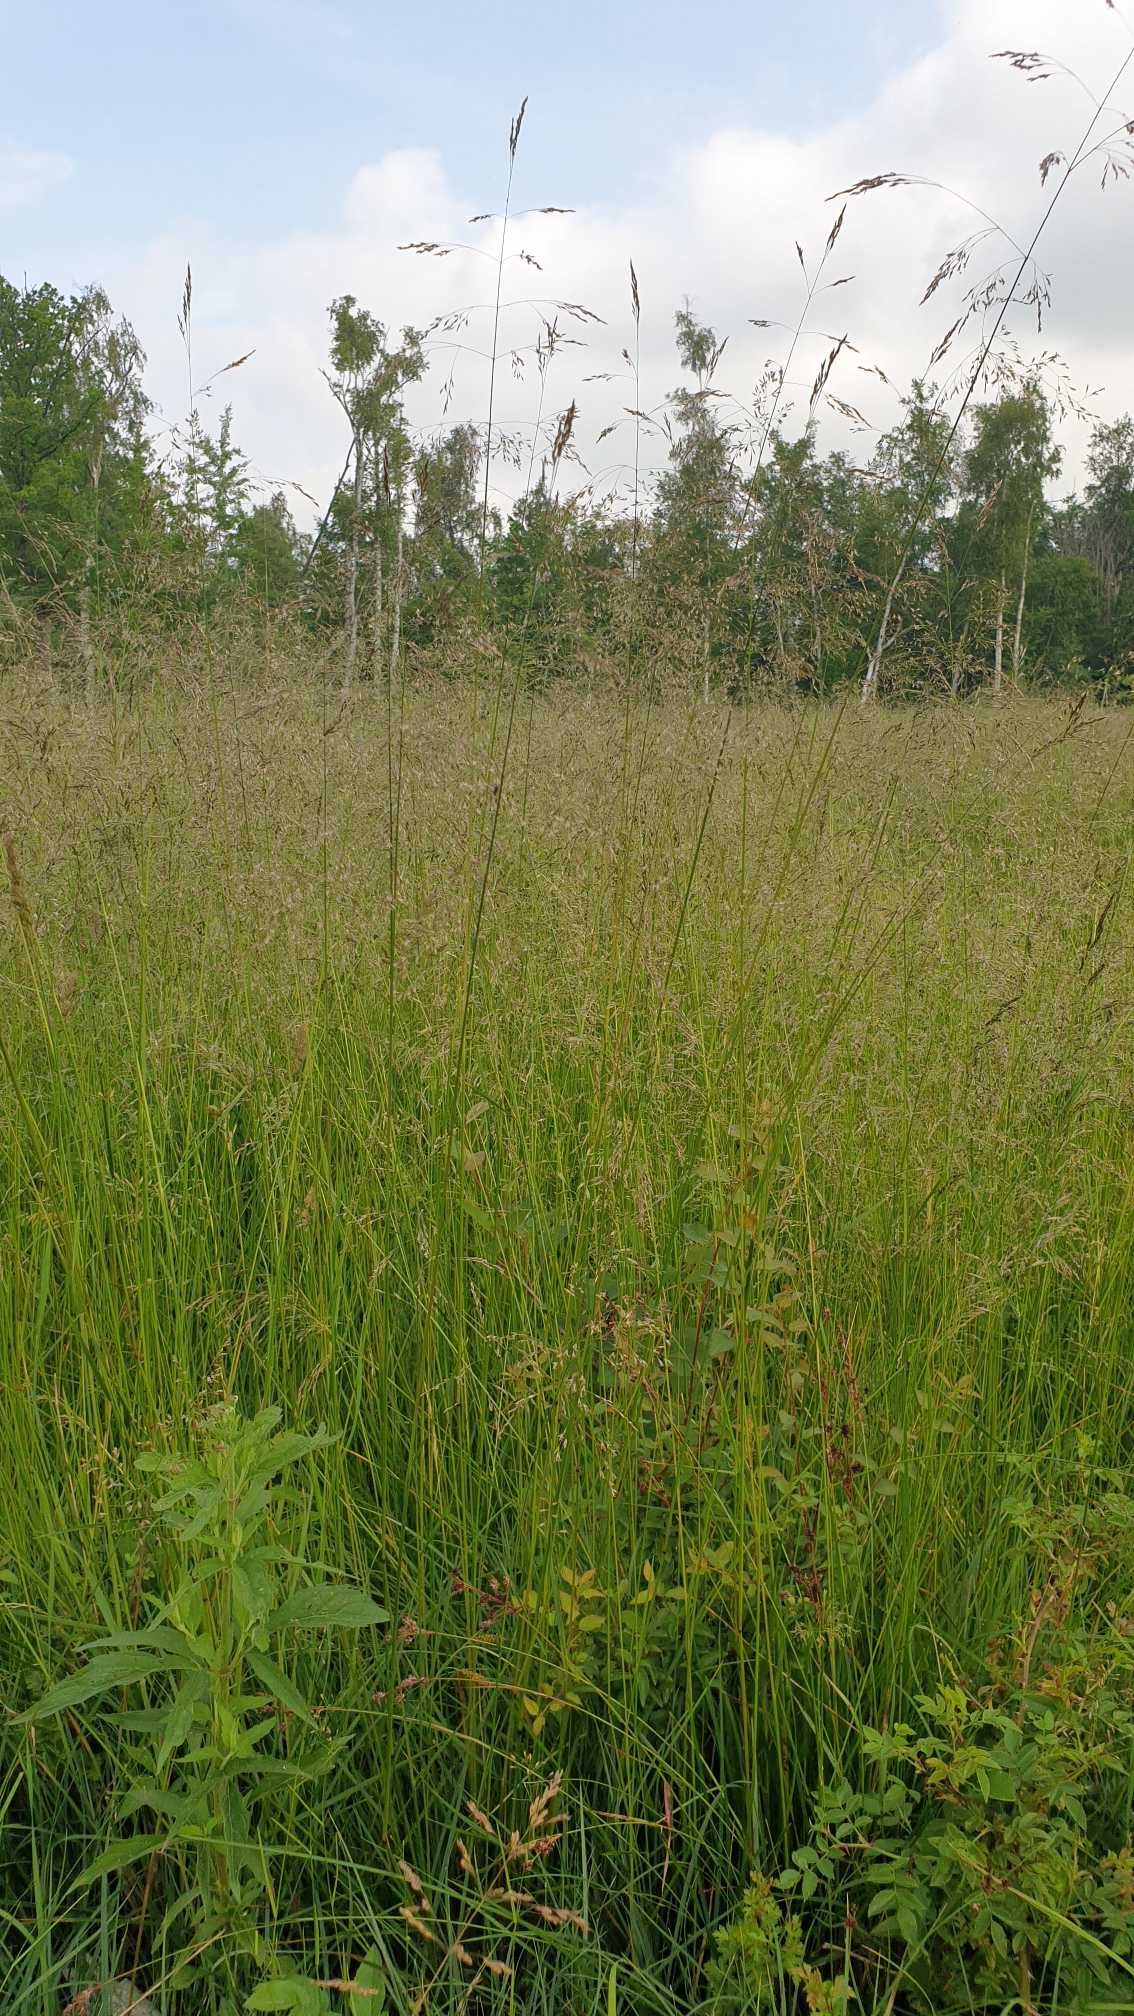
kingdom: Plantae
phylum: Tracheophyta
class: Liliopsida
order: Poales
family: Poaceae
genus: Deschampsia
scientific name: Deschampsia cespitosa
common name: Mose-bunke
